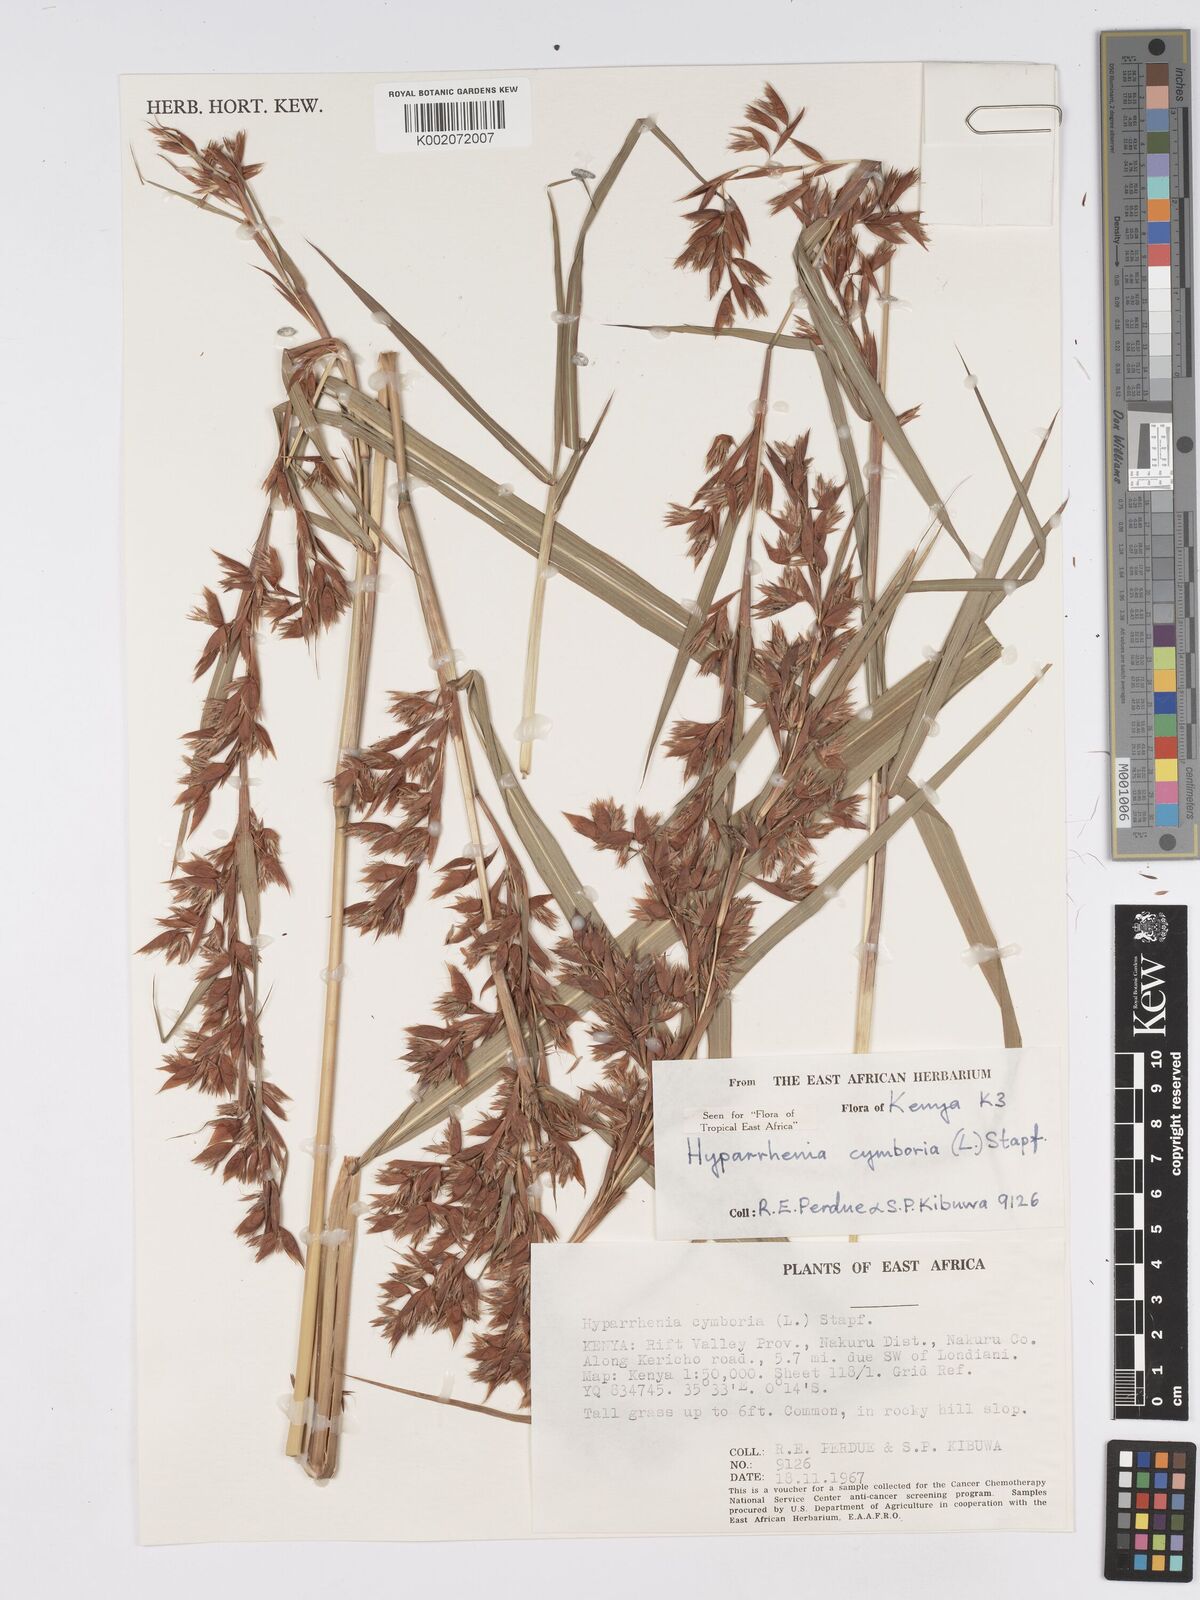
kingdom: Plantae
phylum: Tracheophyta
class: Liliopsida
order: Poales
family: Poaceae
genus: Hyparrhenia
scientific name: Hyparrhenia cymbaria
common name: Boat thatching grass
